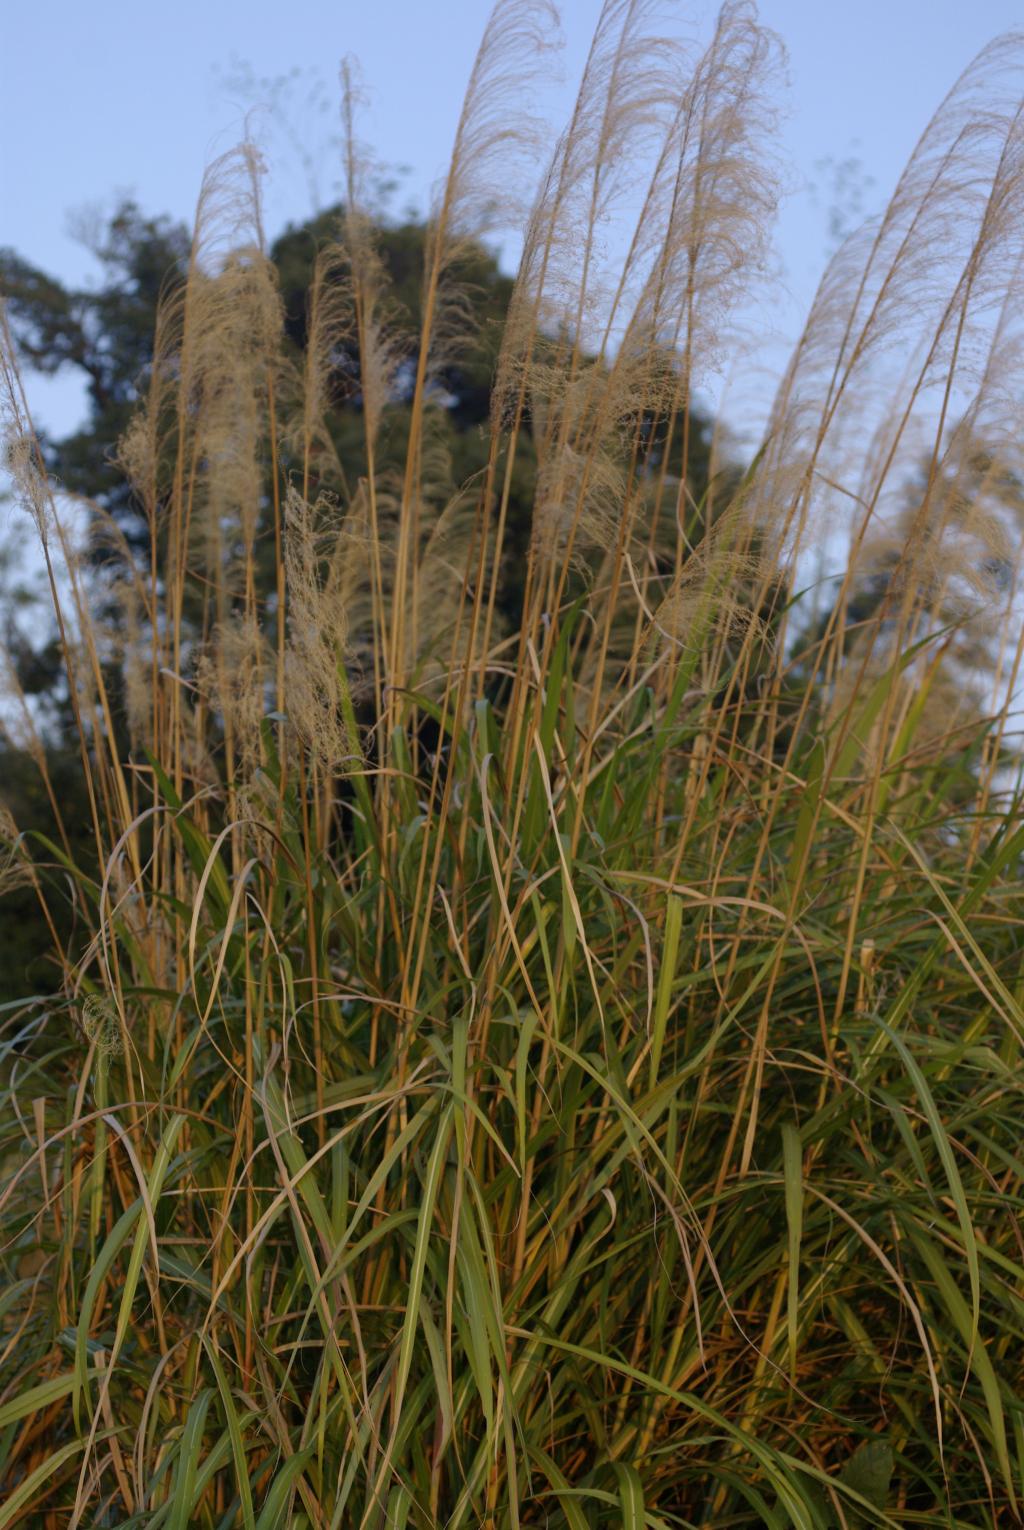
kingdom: Plantae
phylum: Tracheophyta
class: Liliopsida
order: Poales
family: Poaceae
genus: Miscanthus
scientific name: Miscanthus sinensis
